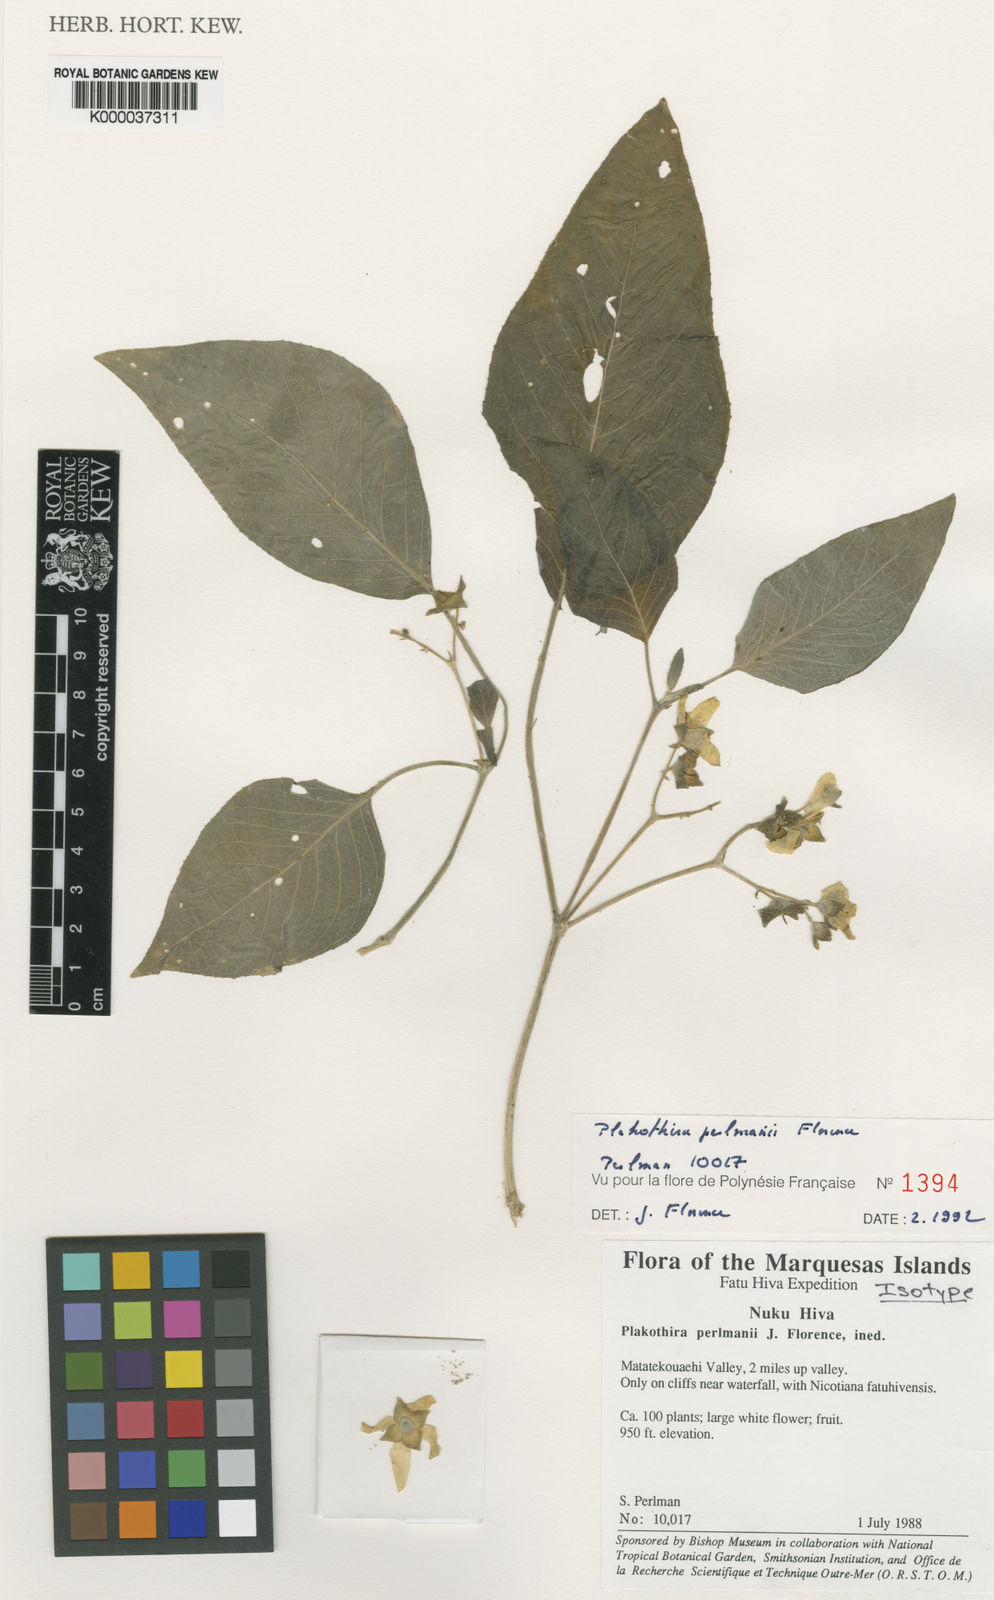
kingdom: Plantae
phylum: Tracheophyta
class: Magnoliopsida
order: Cornales
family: Loasaceae
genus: Plakothira
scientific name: Plakothira perlmanii
